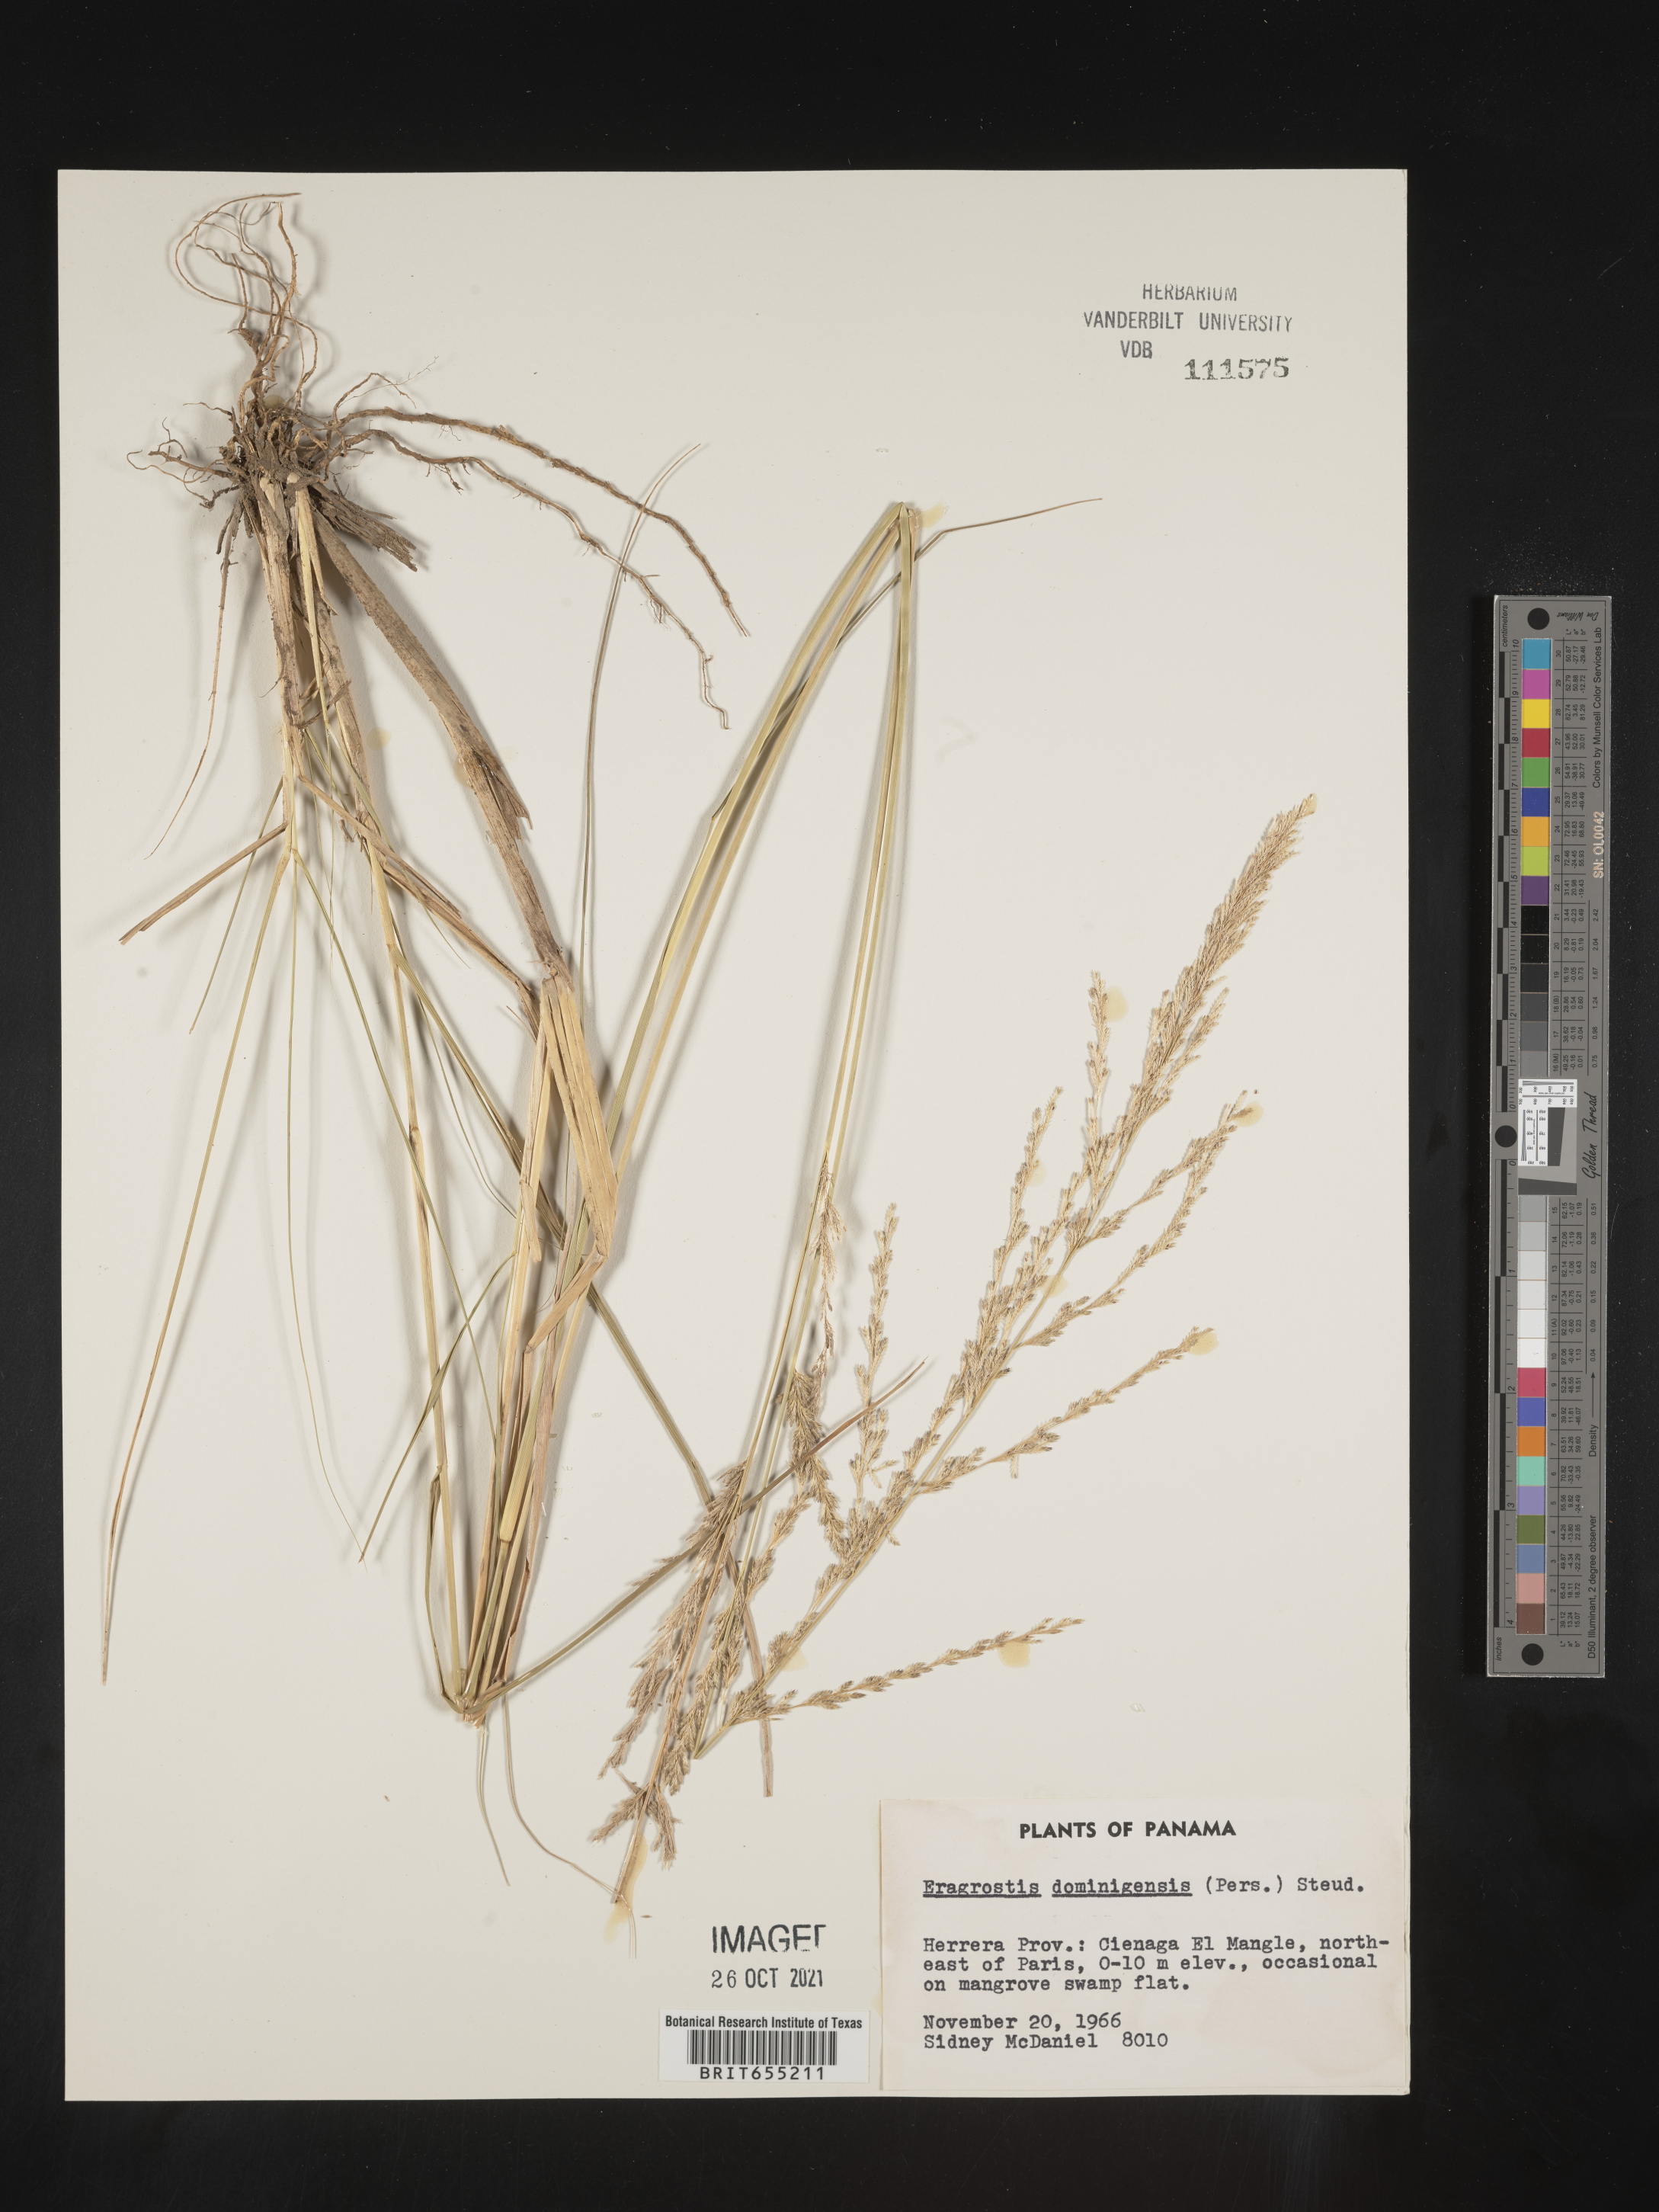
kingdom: Plantae
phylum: Tracheophyta
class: Liliopsida
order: Poales
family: Poaceae
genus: Eragrostis
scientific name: Eragrostis
